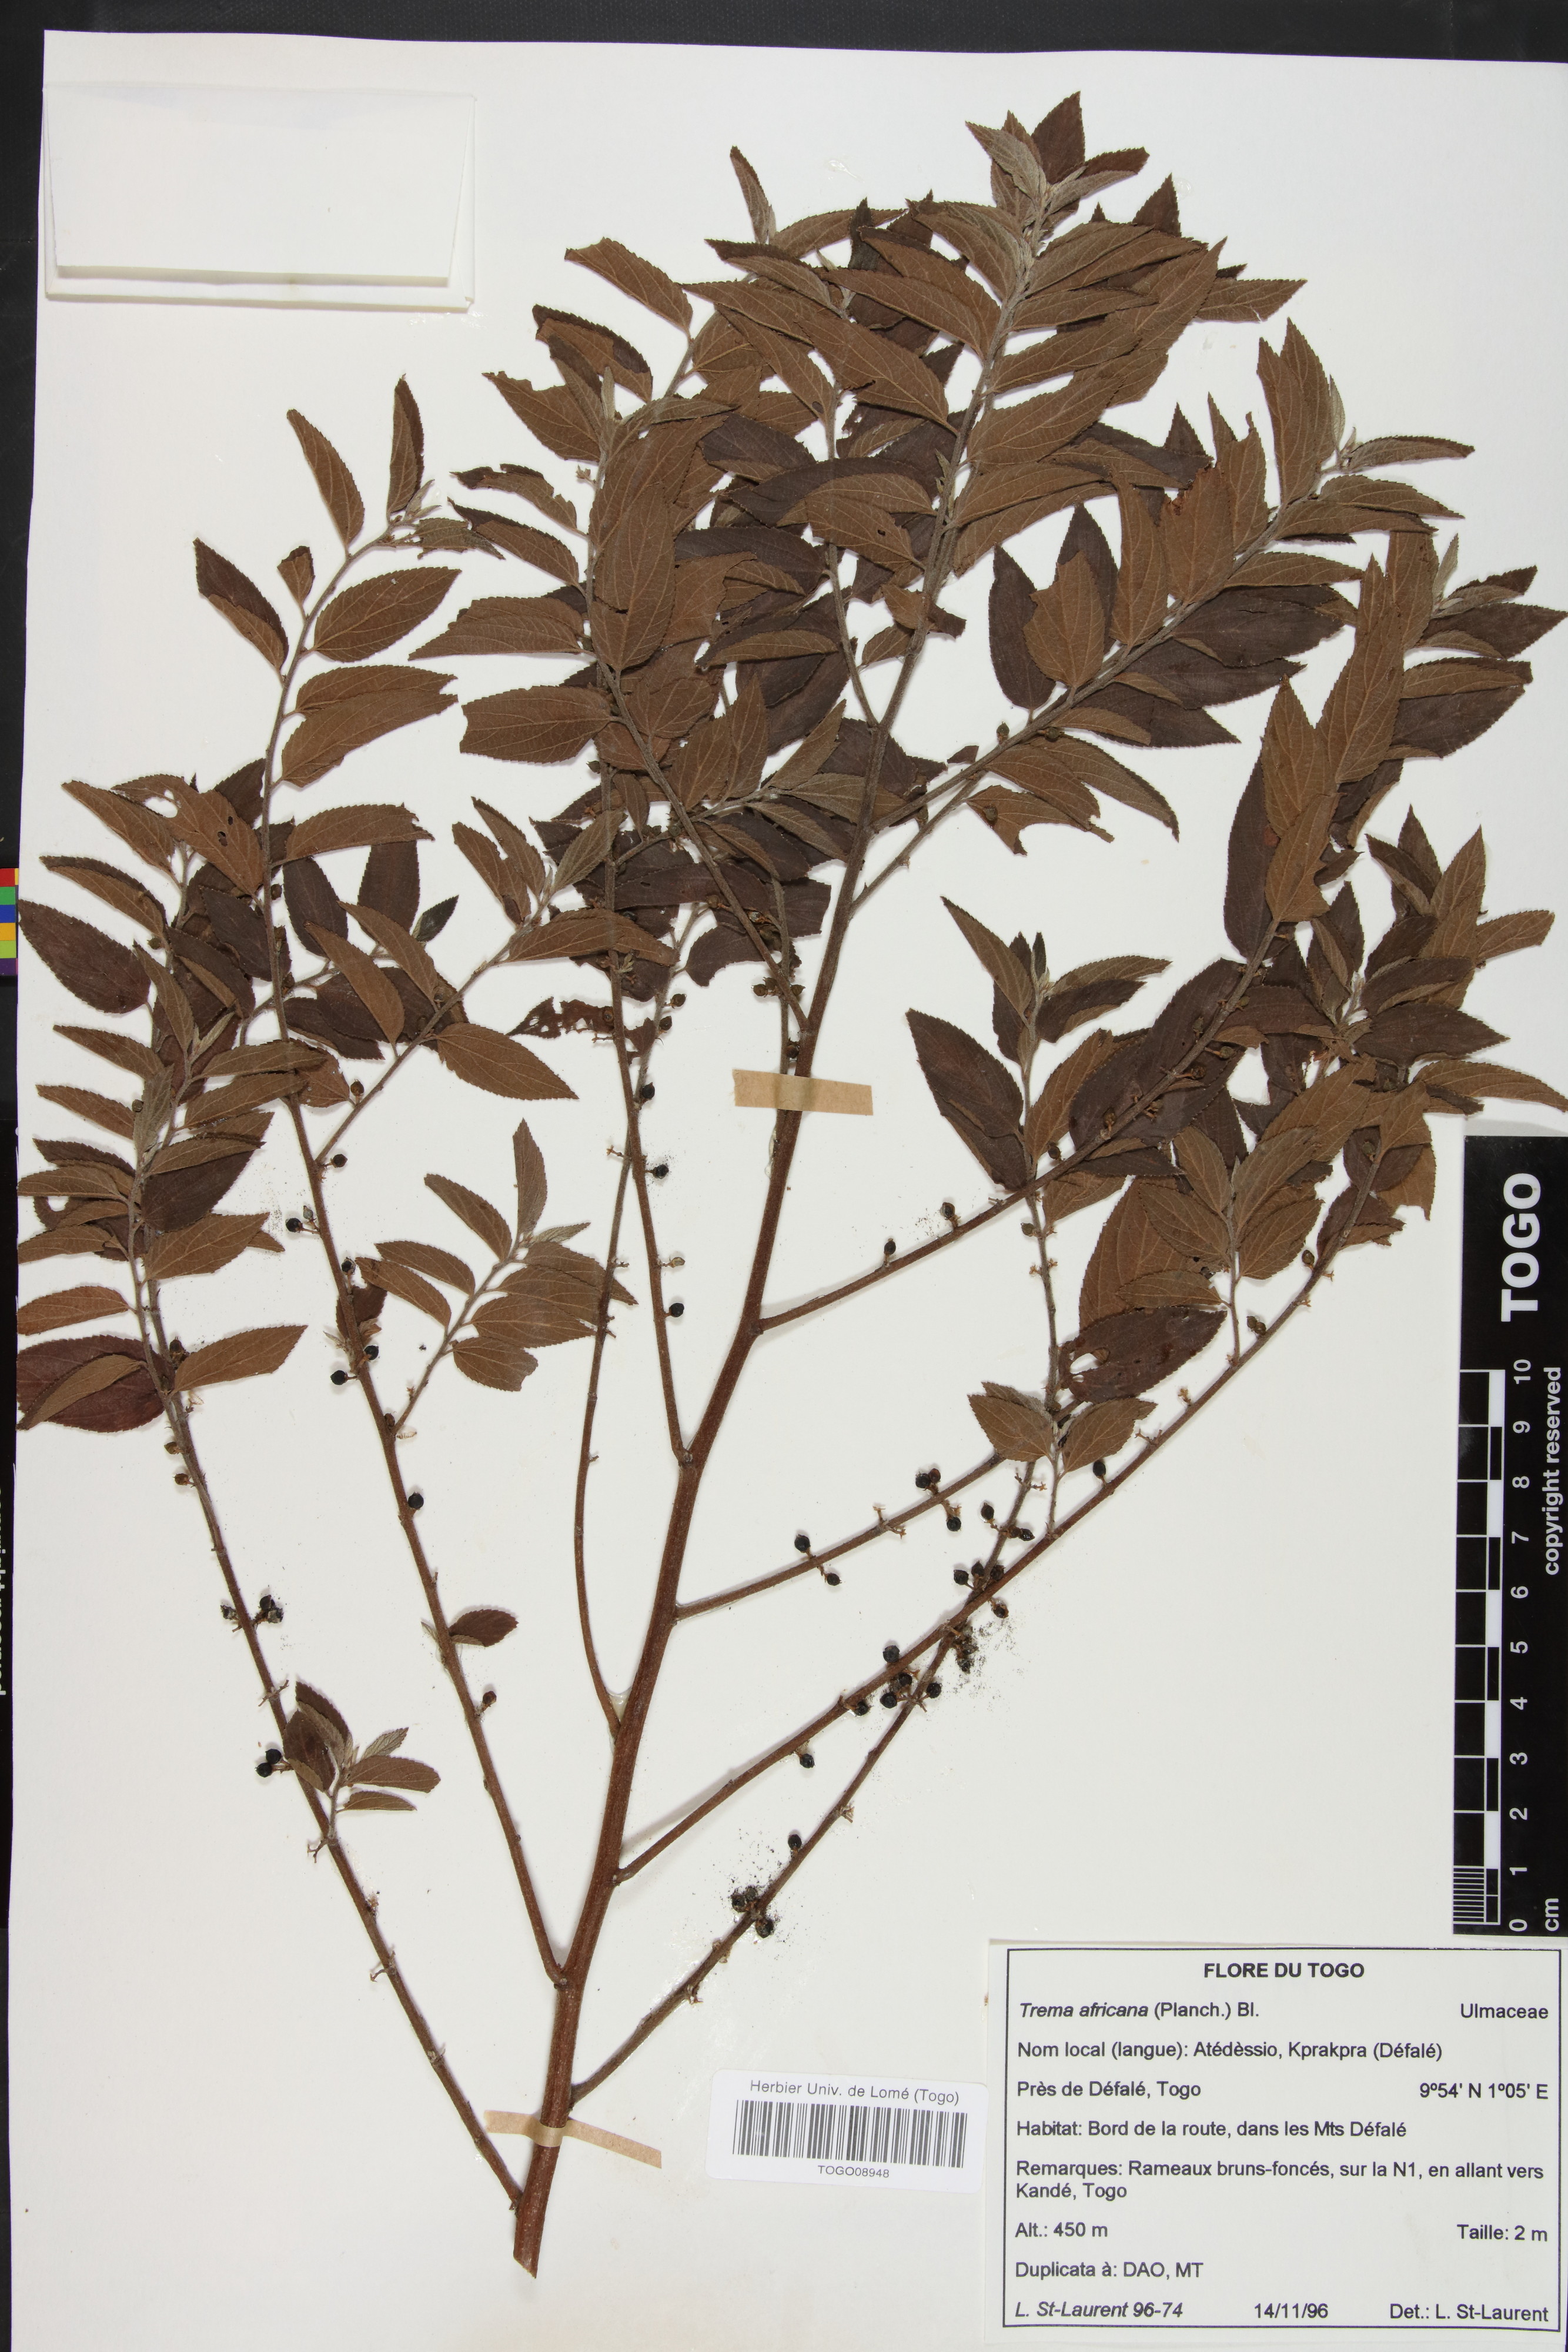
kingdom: Plantae
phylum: Tracheophyta
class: Magnoliopsida
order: Rosales
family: Cannabaceae
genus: Trema
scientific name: Trema orientale
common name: Indian charcoal tree
